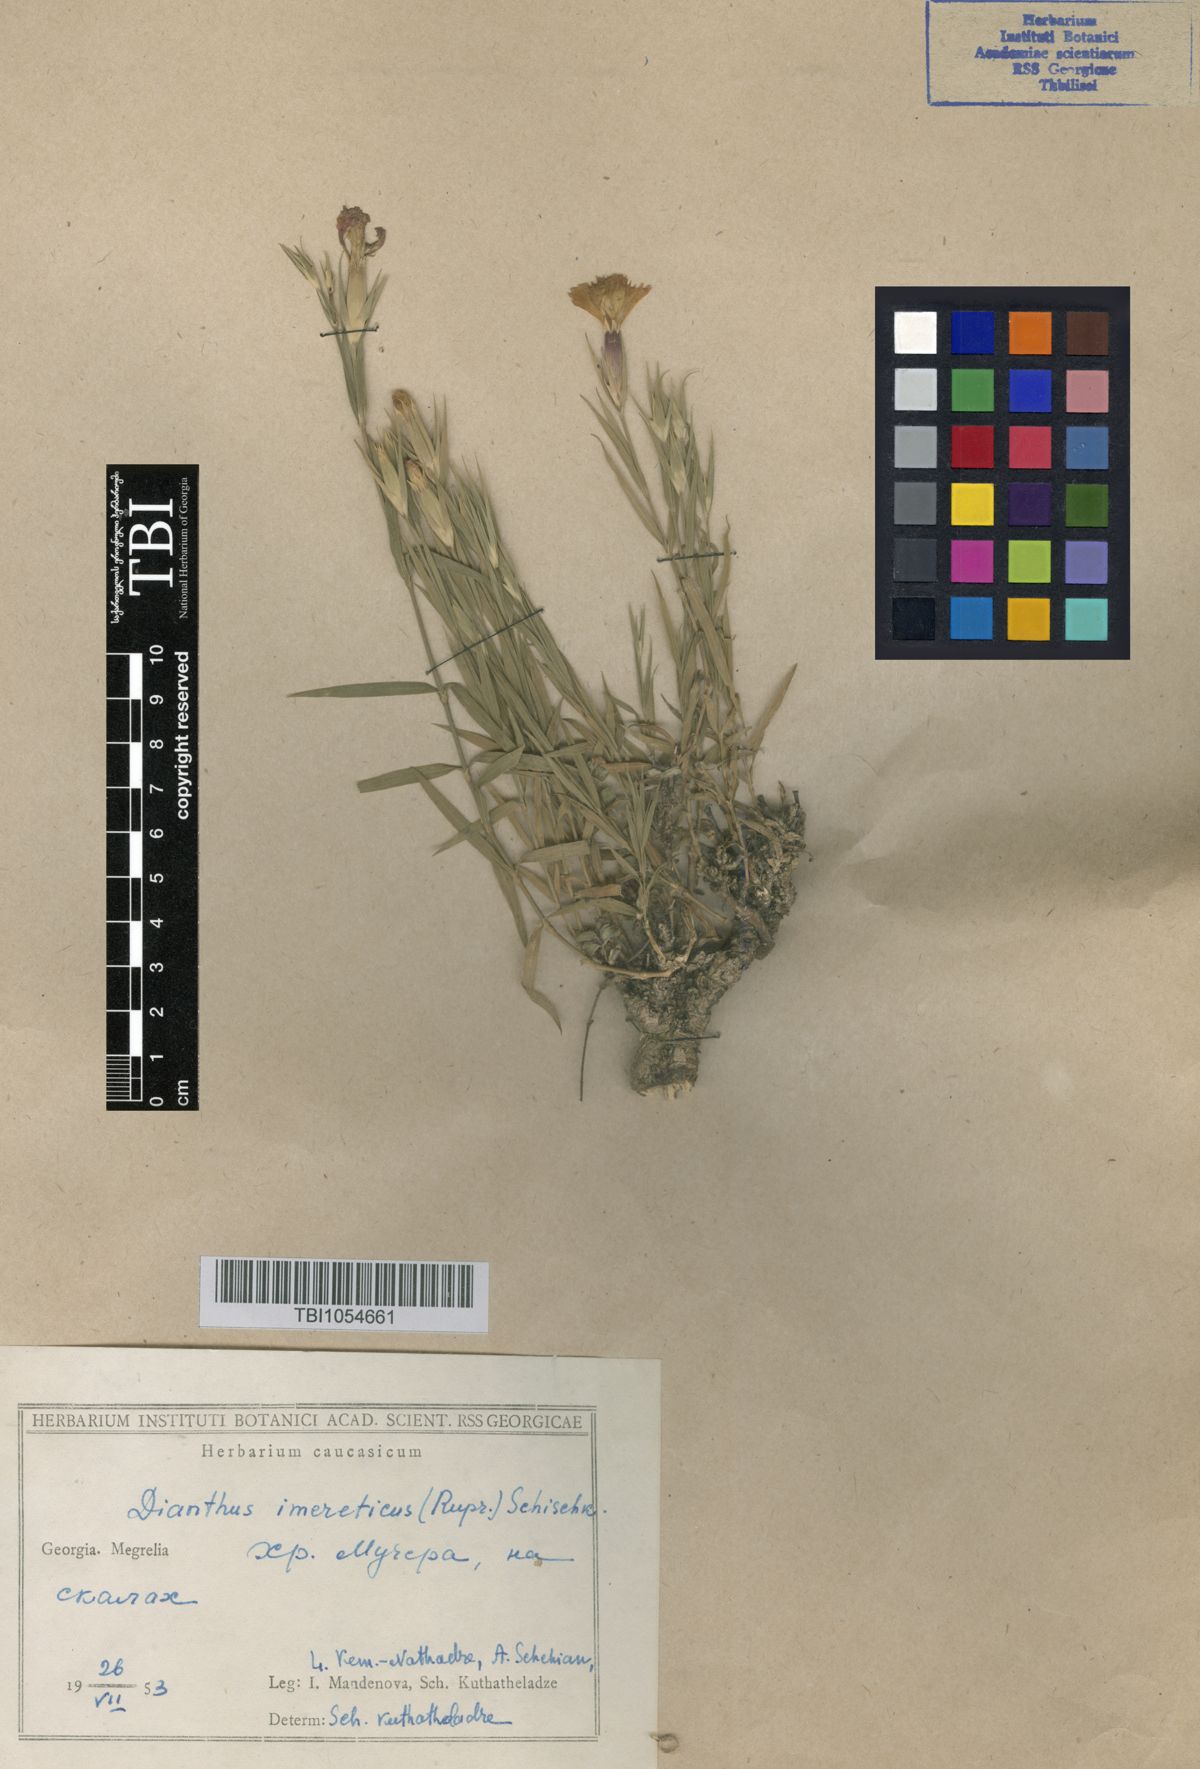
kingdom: Plantae
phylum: Tracheophyta
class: Magnoliopsida
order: Caryophyllales
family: Caryophyllaceae
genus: Dianthus
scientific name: Dianthus kusnezovii
